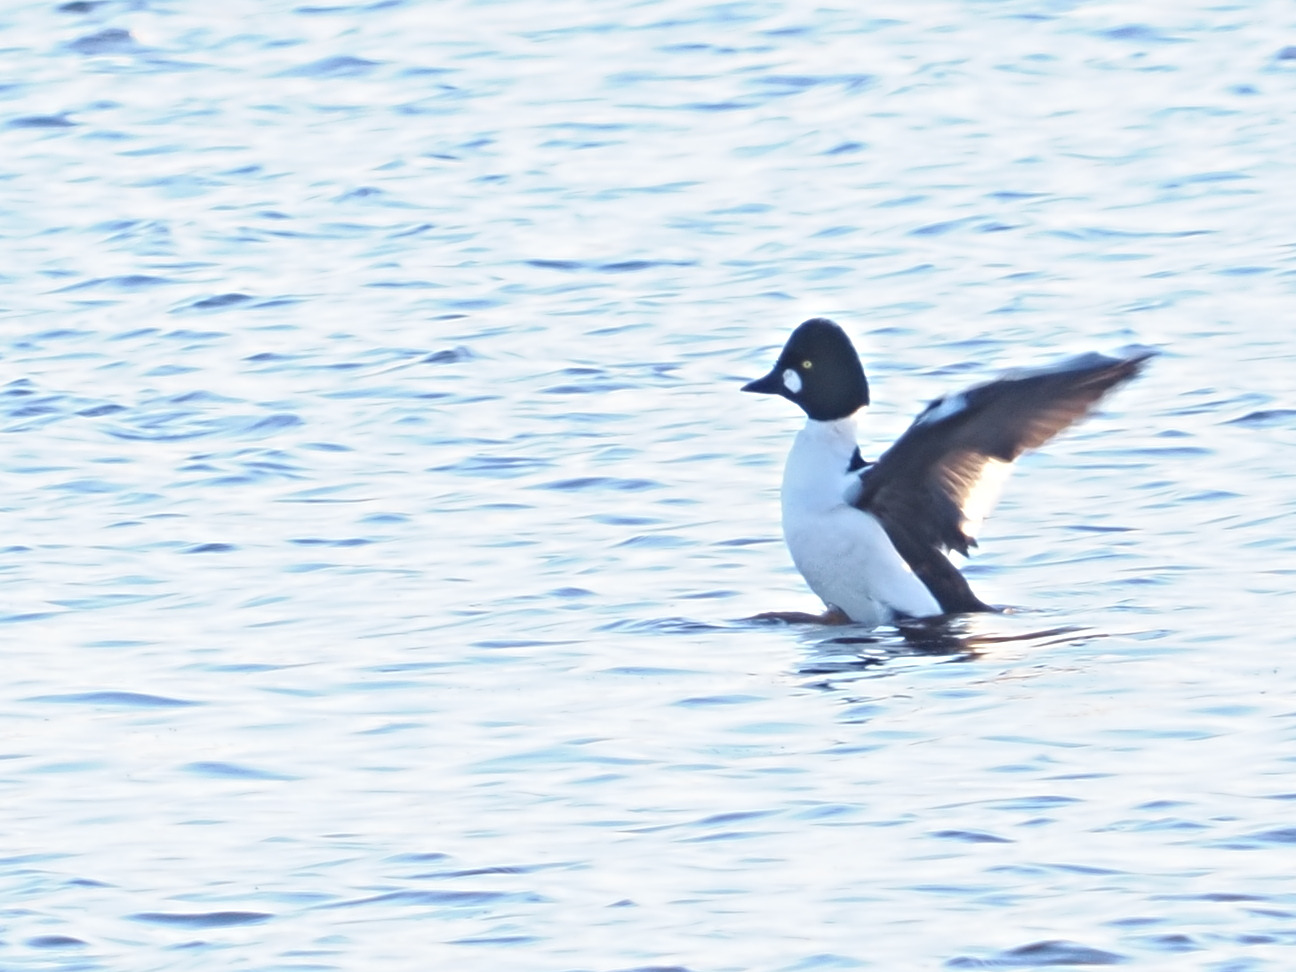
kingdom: Animalia
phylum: Chordata
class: Aves
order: Anseriformes
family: Anatidae
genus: Bucephala
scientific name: Bucephala clangula
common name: Hvinand
